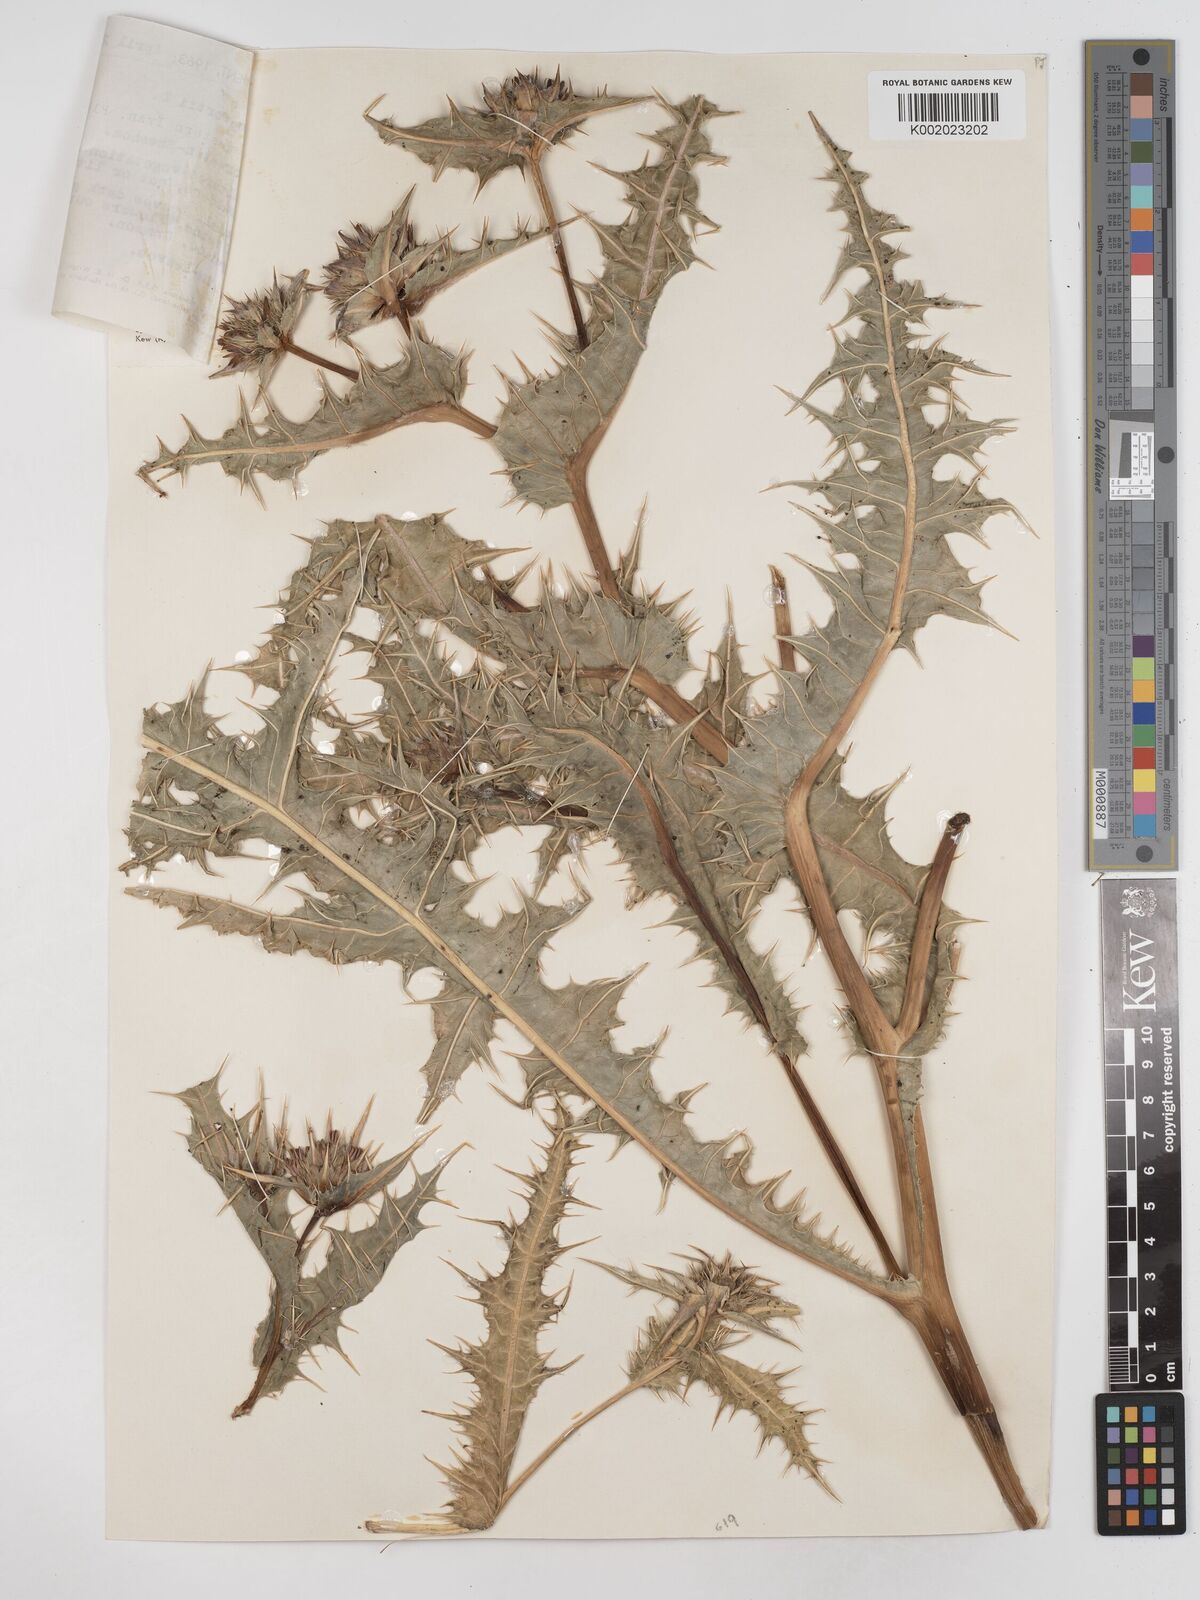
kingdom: Plantae
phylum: Tracheophyta
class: Magnoliopsida
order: Asterales
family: Asteraceae
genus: Gundelia
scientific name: Gundelia tournefortii
